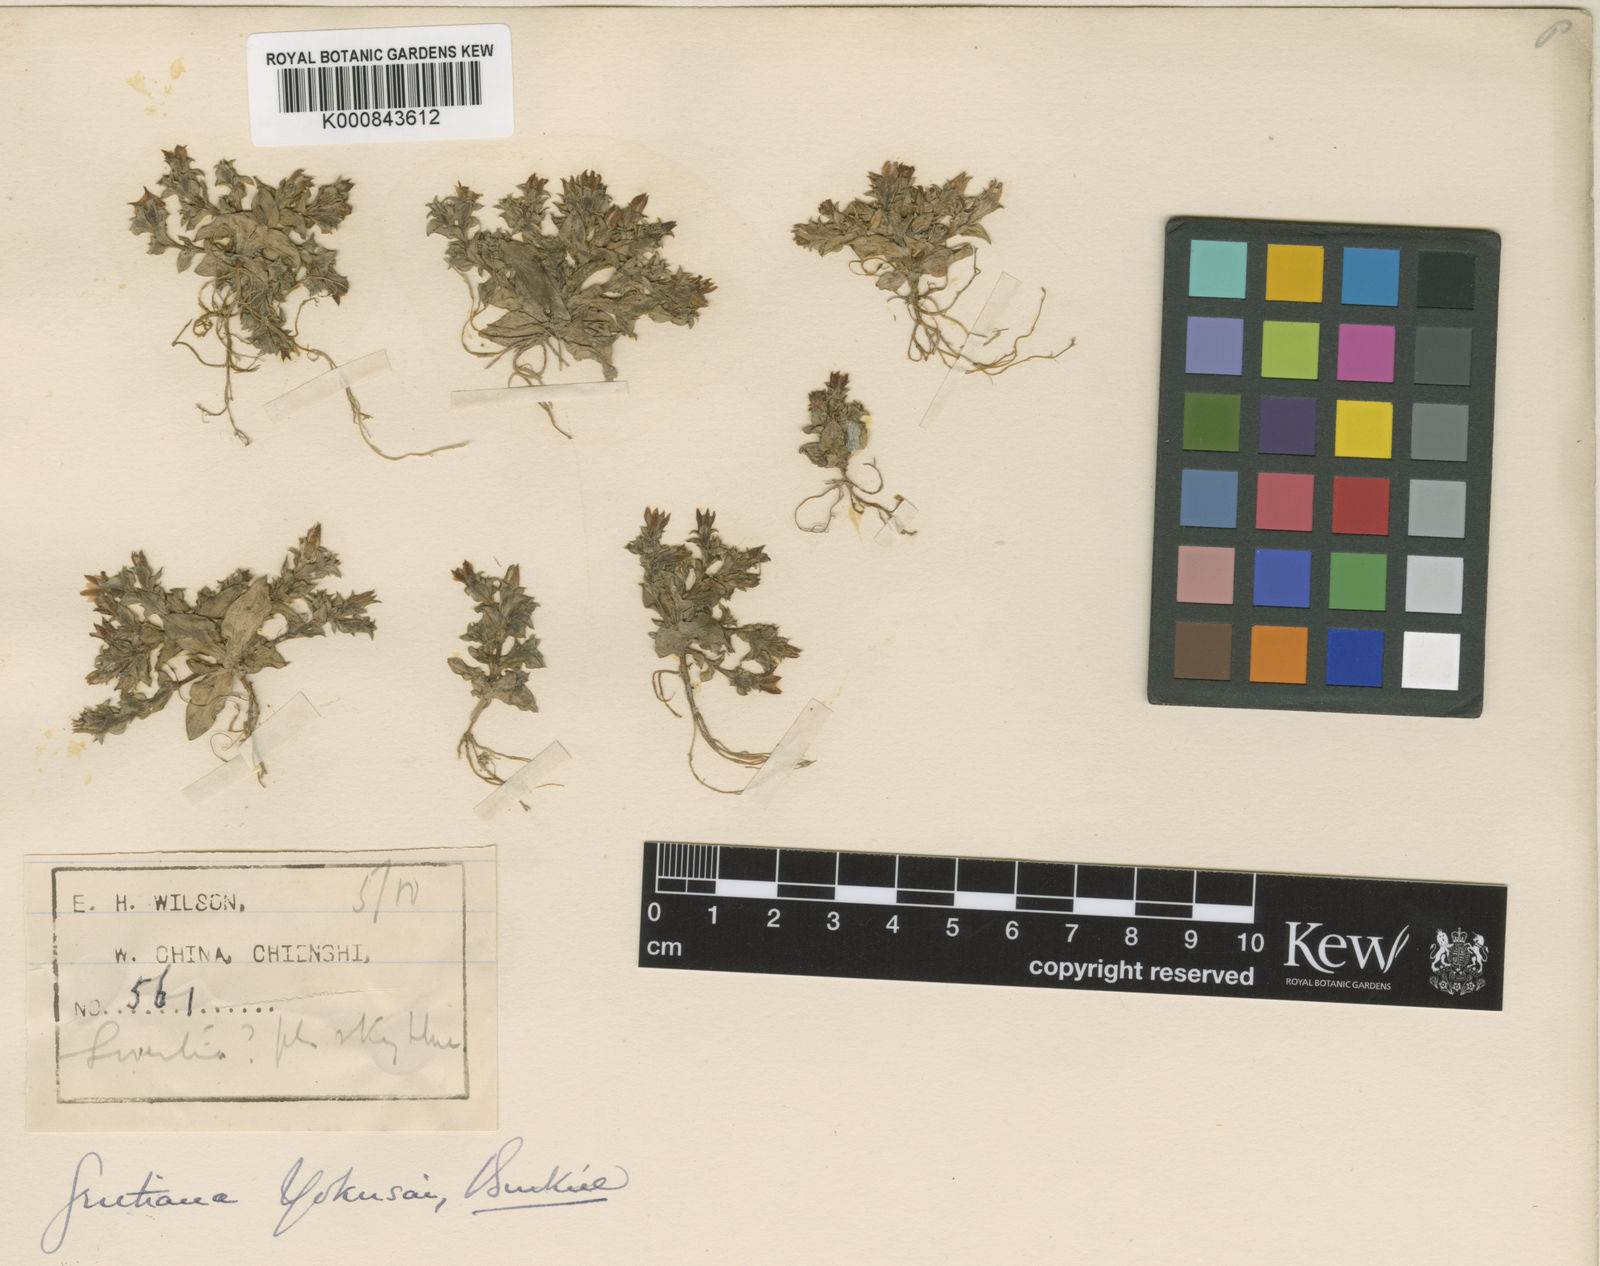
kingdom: Plantae
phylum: Tracheophyta
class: Magnoliopsida
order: Gentianales
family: Gentianaceae
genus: Gentiana
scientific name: Gentiana yokusai
